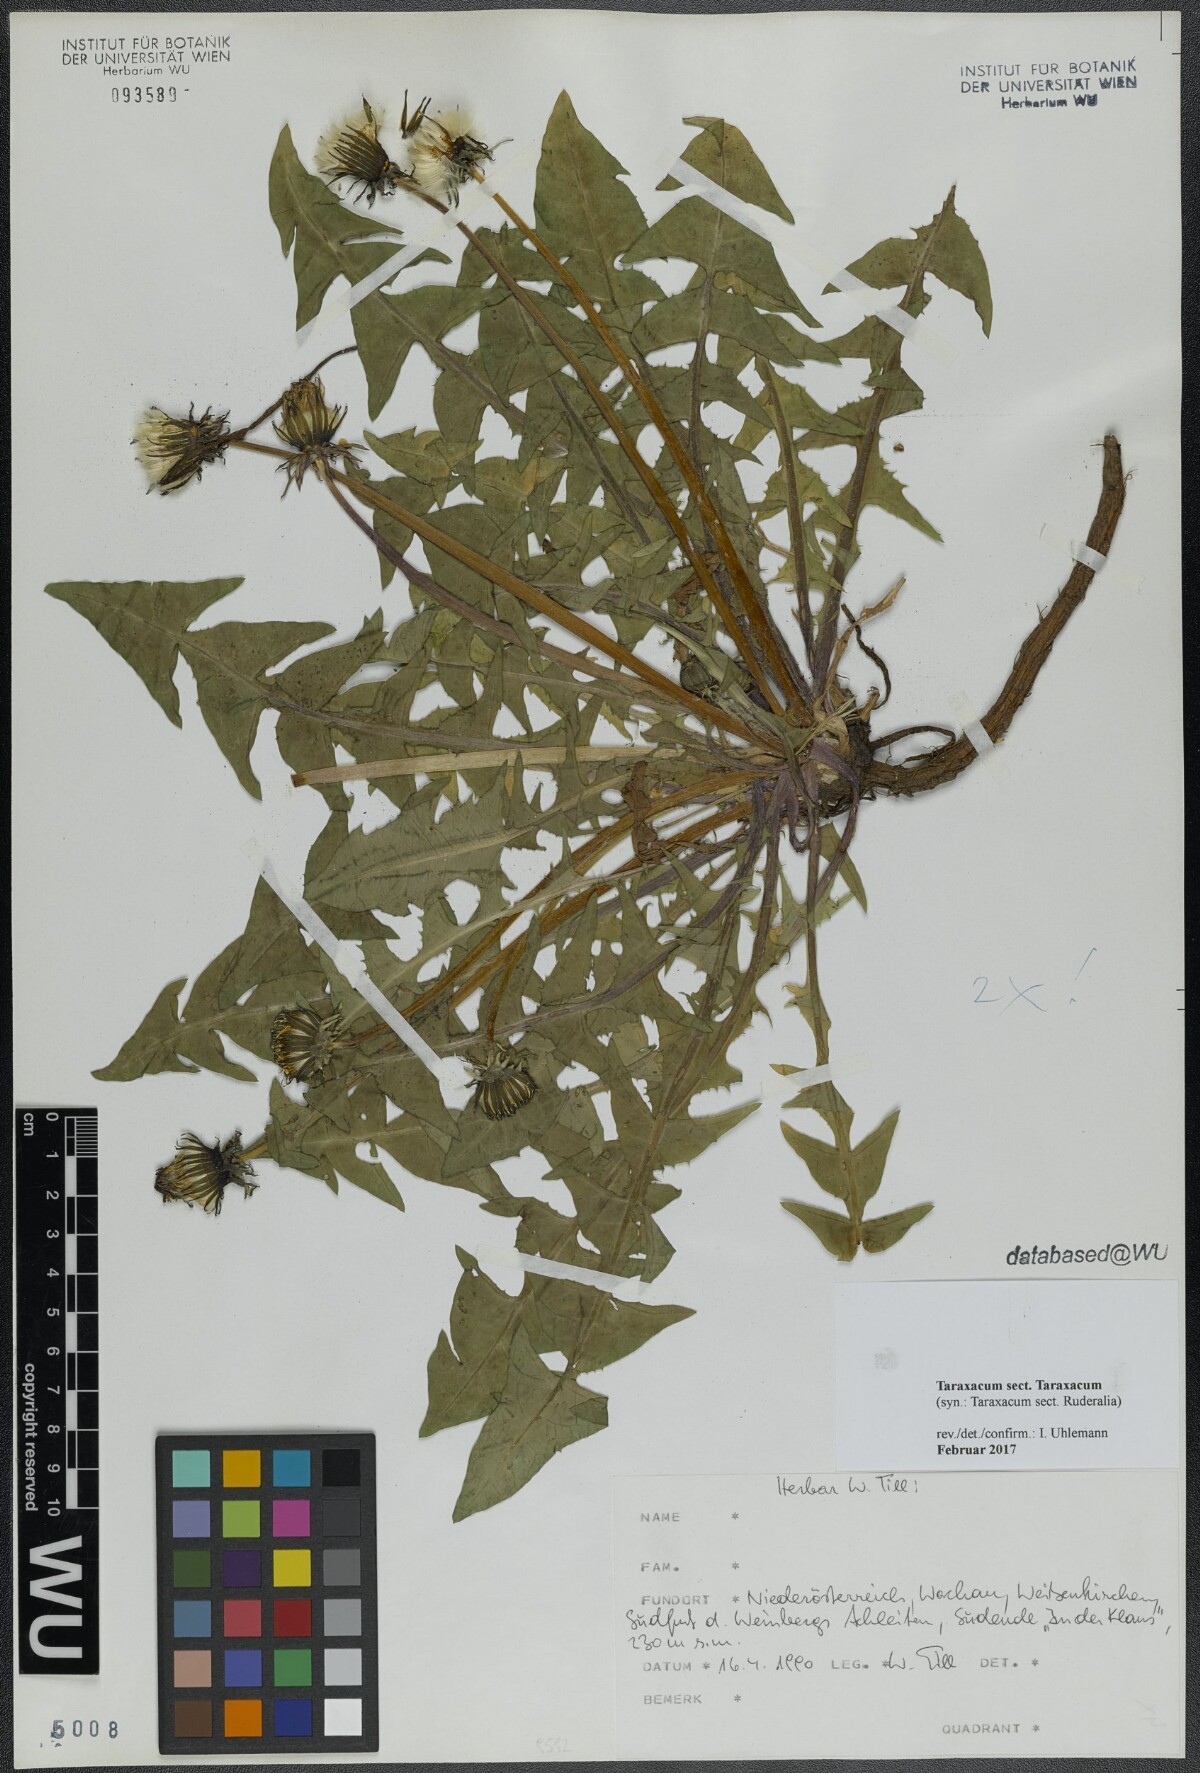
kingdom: Plantae
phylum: Tracheophyta
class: Magnoliopsida
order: Asterales
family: Asteraceae
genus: Taraxacum
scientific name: Taraxacum
